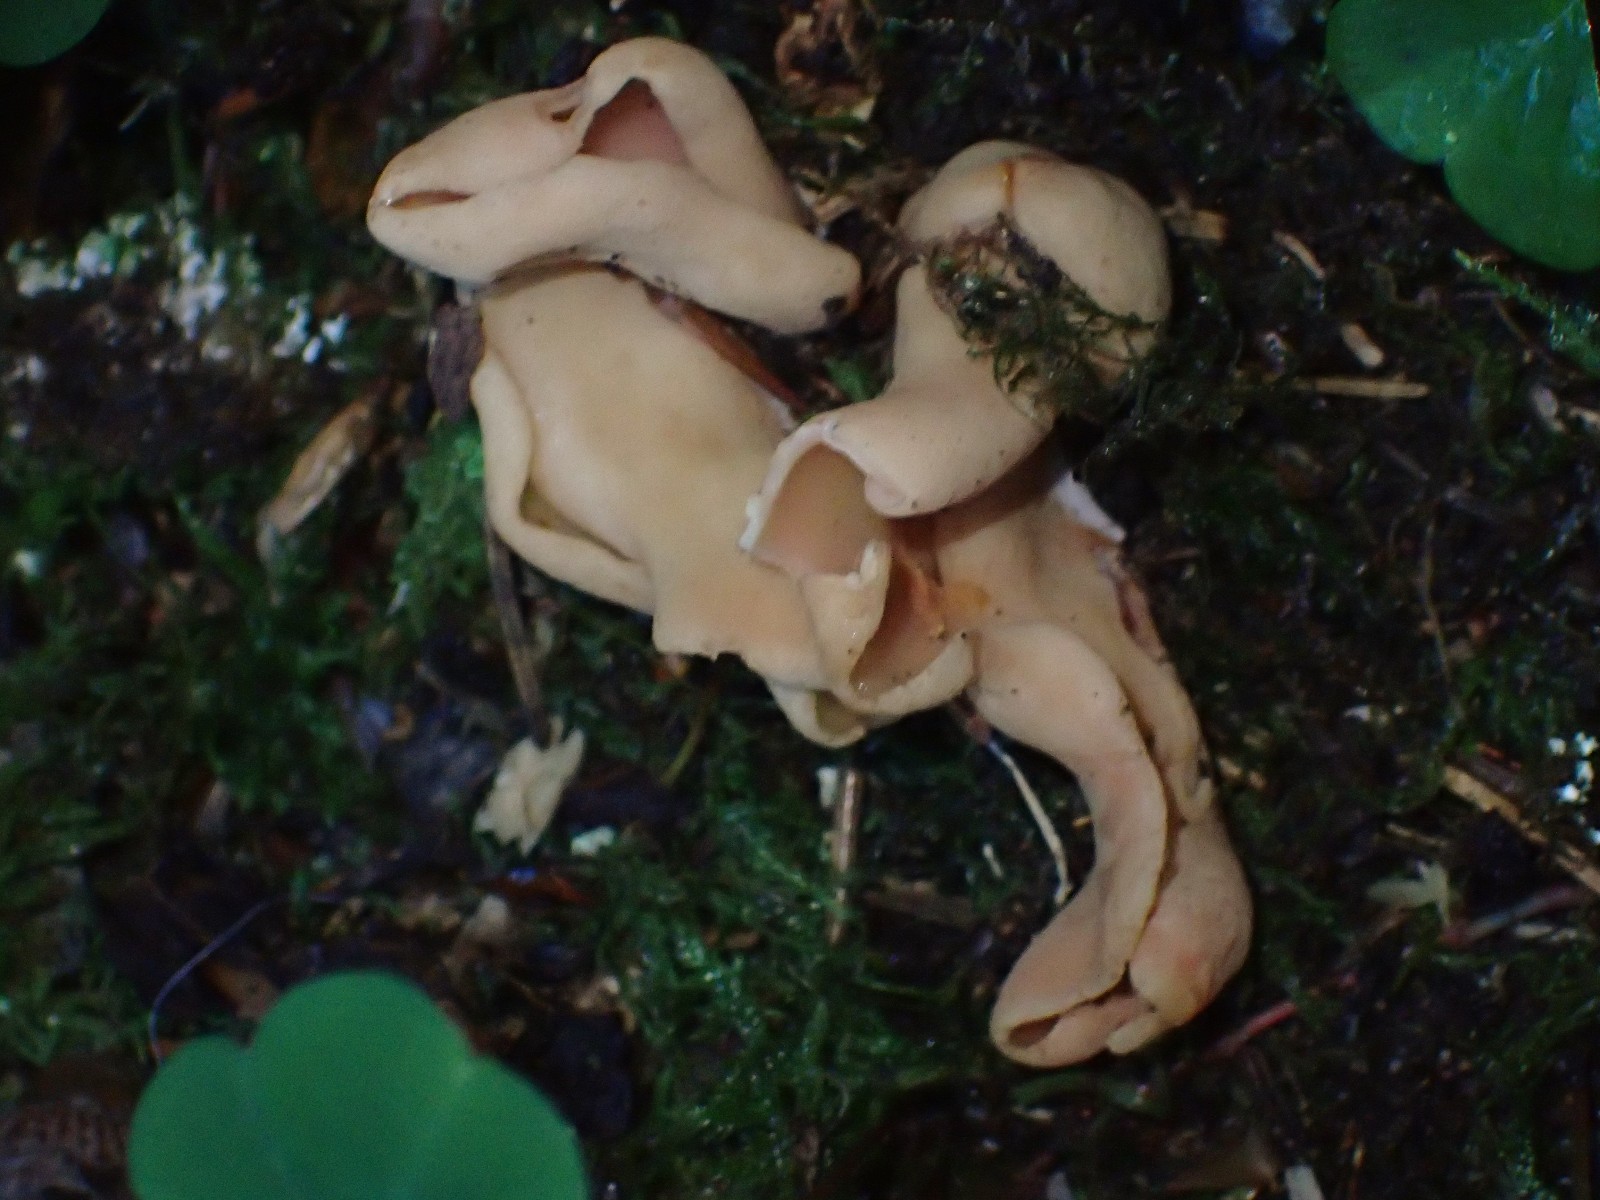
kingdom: Fungi
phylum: Ascomycota
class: Pezizomycetes
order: Pezizales
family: Otideaceae
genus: Otidea
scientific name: Otidea
